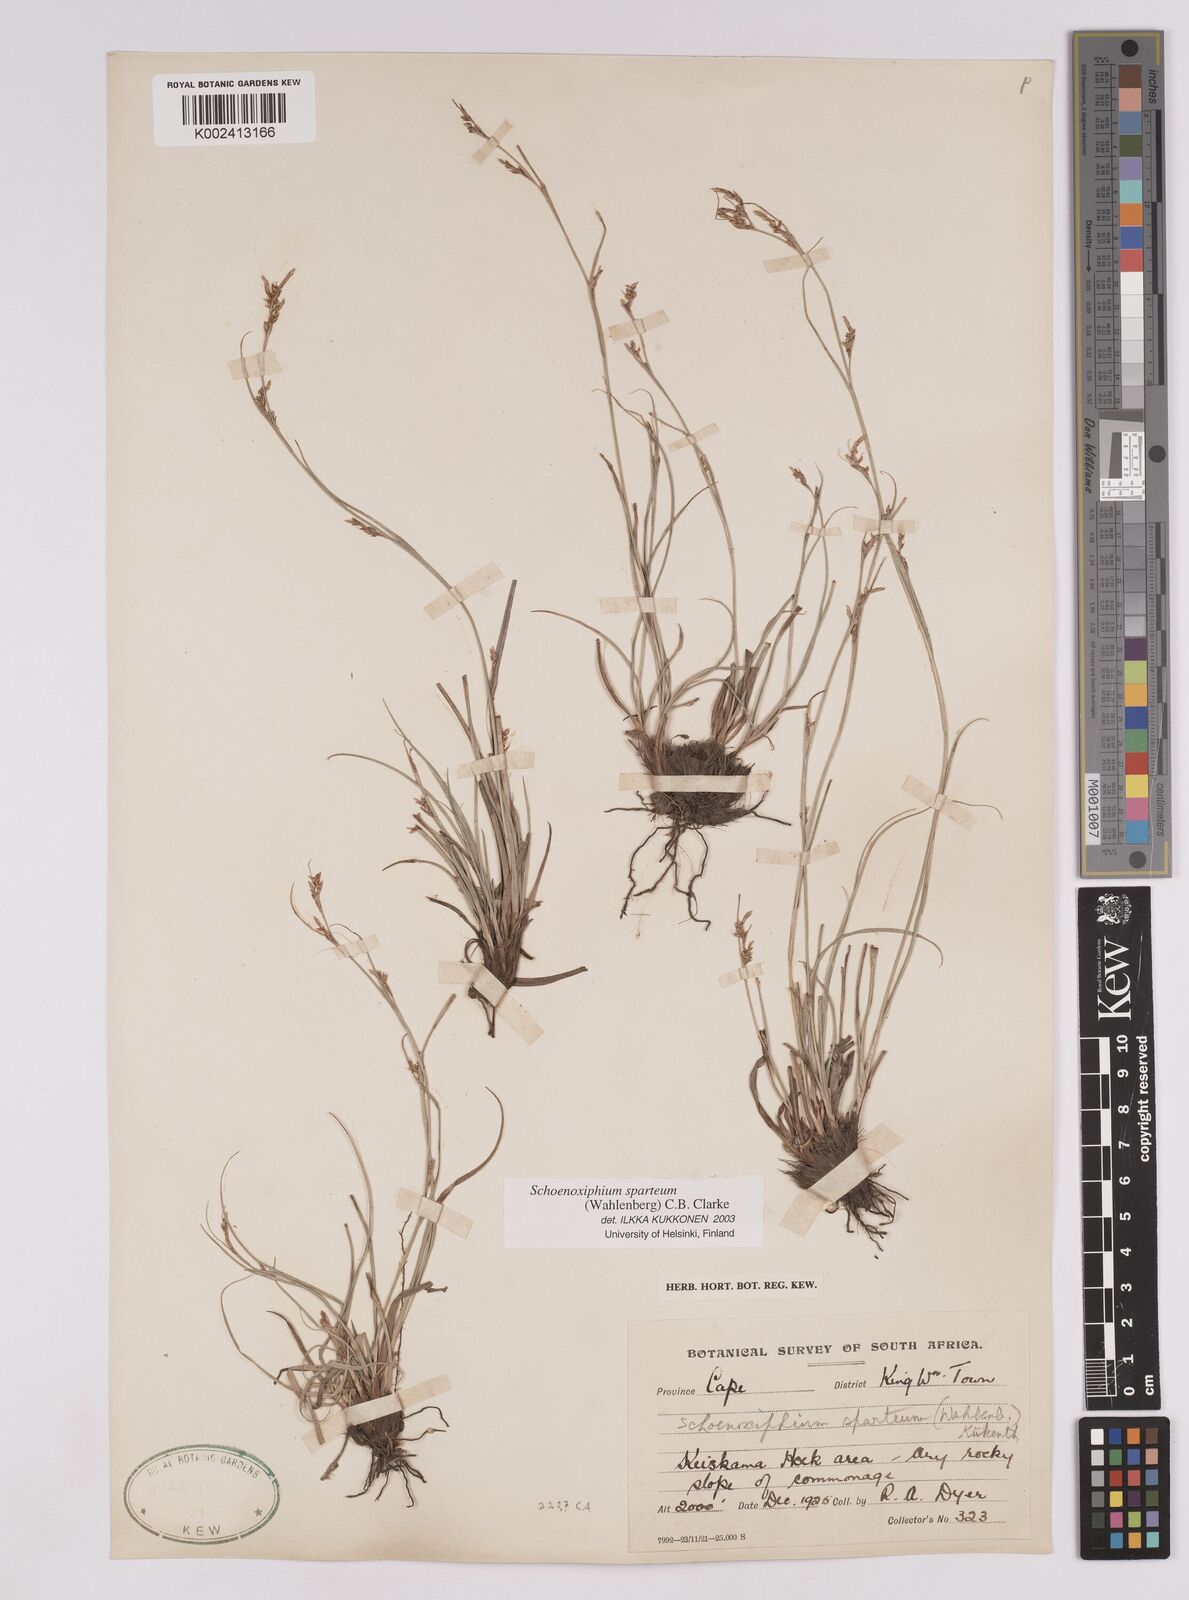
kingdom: Plantae
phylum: Tracheophyta
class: Liliopsida
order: Poales
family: Cyperaceae
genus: Carex
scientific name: Carex spartea
